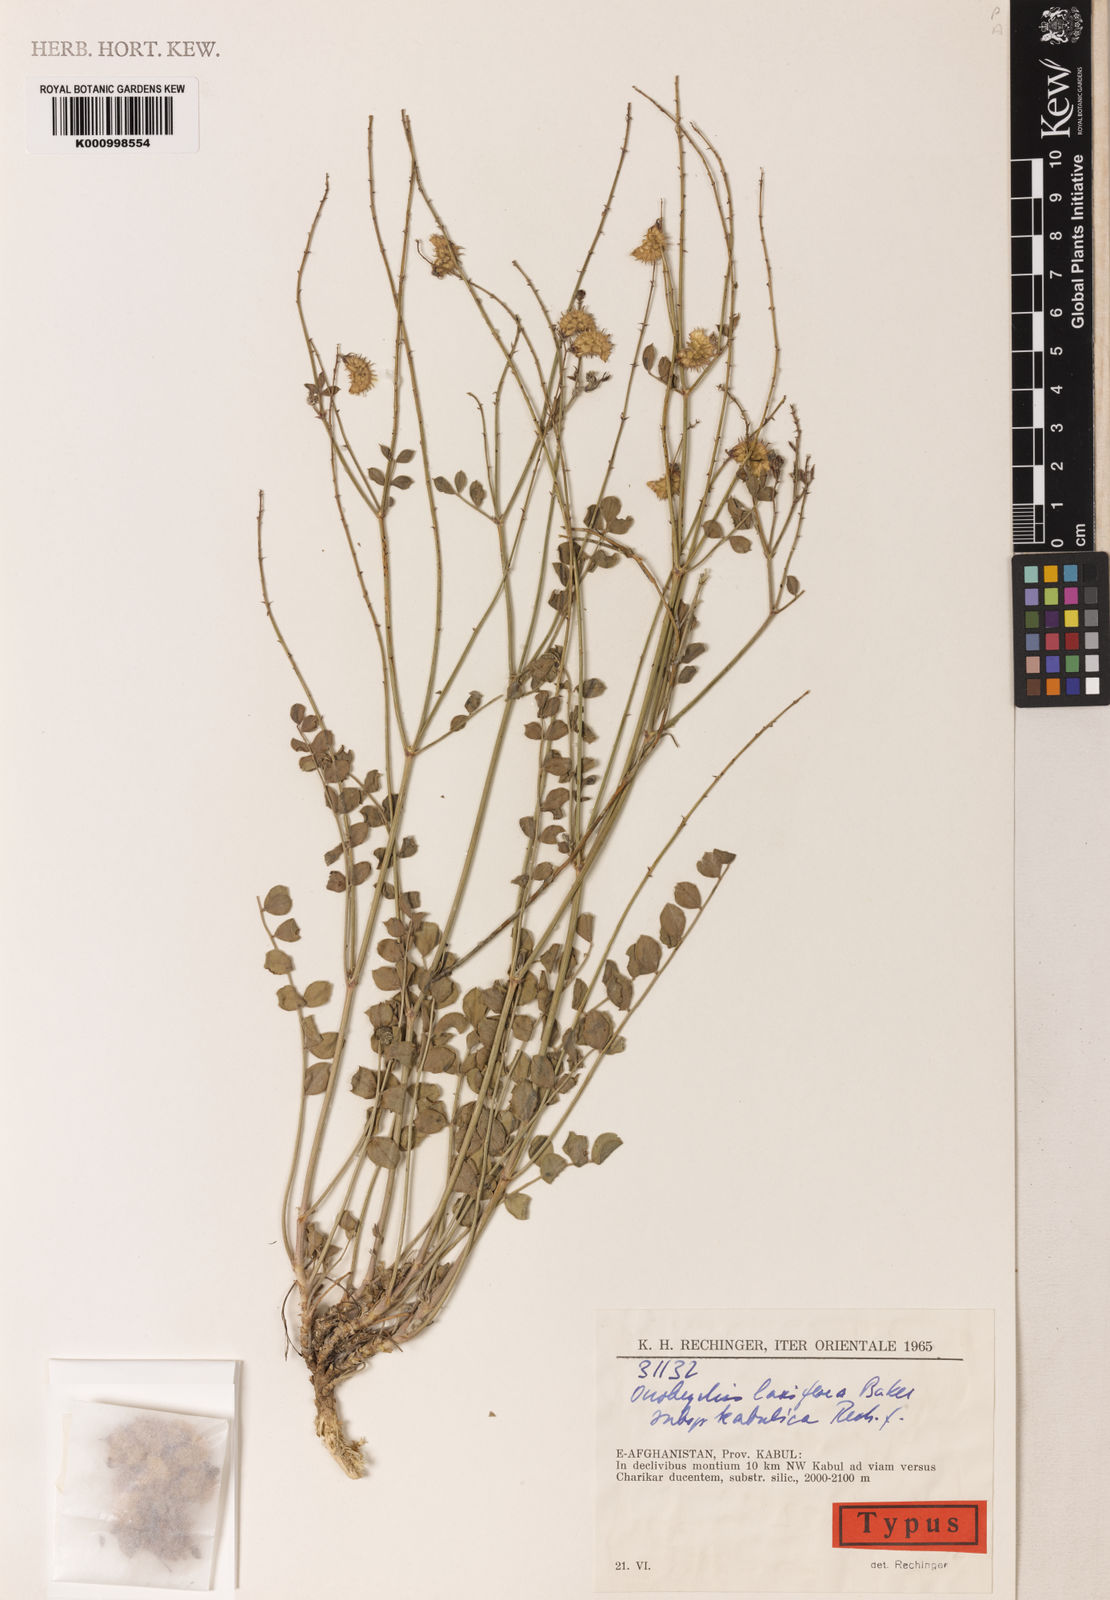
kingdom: Plantae
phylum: Tracheophyta
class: Magnoliopsida
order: Fabales
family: Fabaceae
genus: Onobrychis
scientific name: Onobrychis laxiflora
